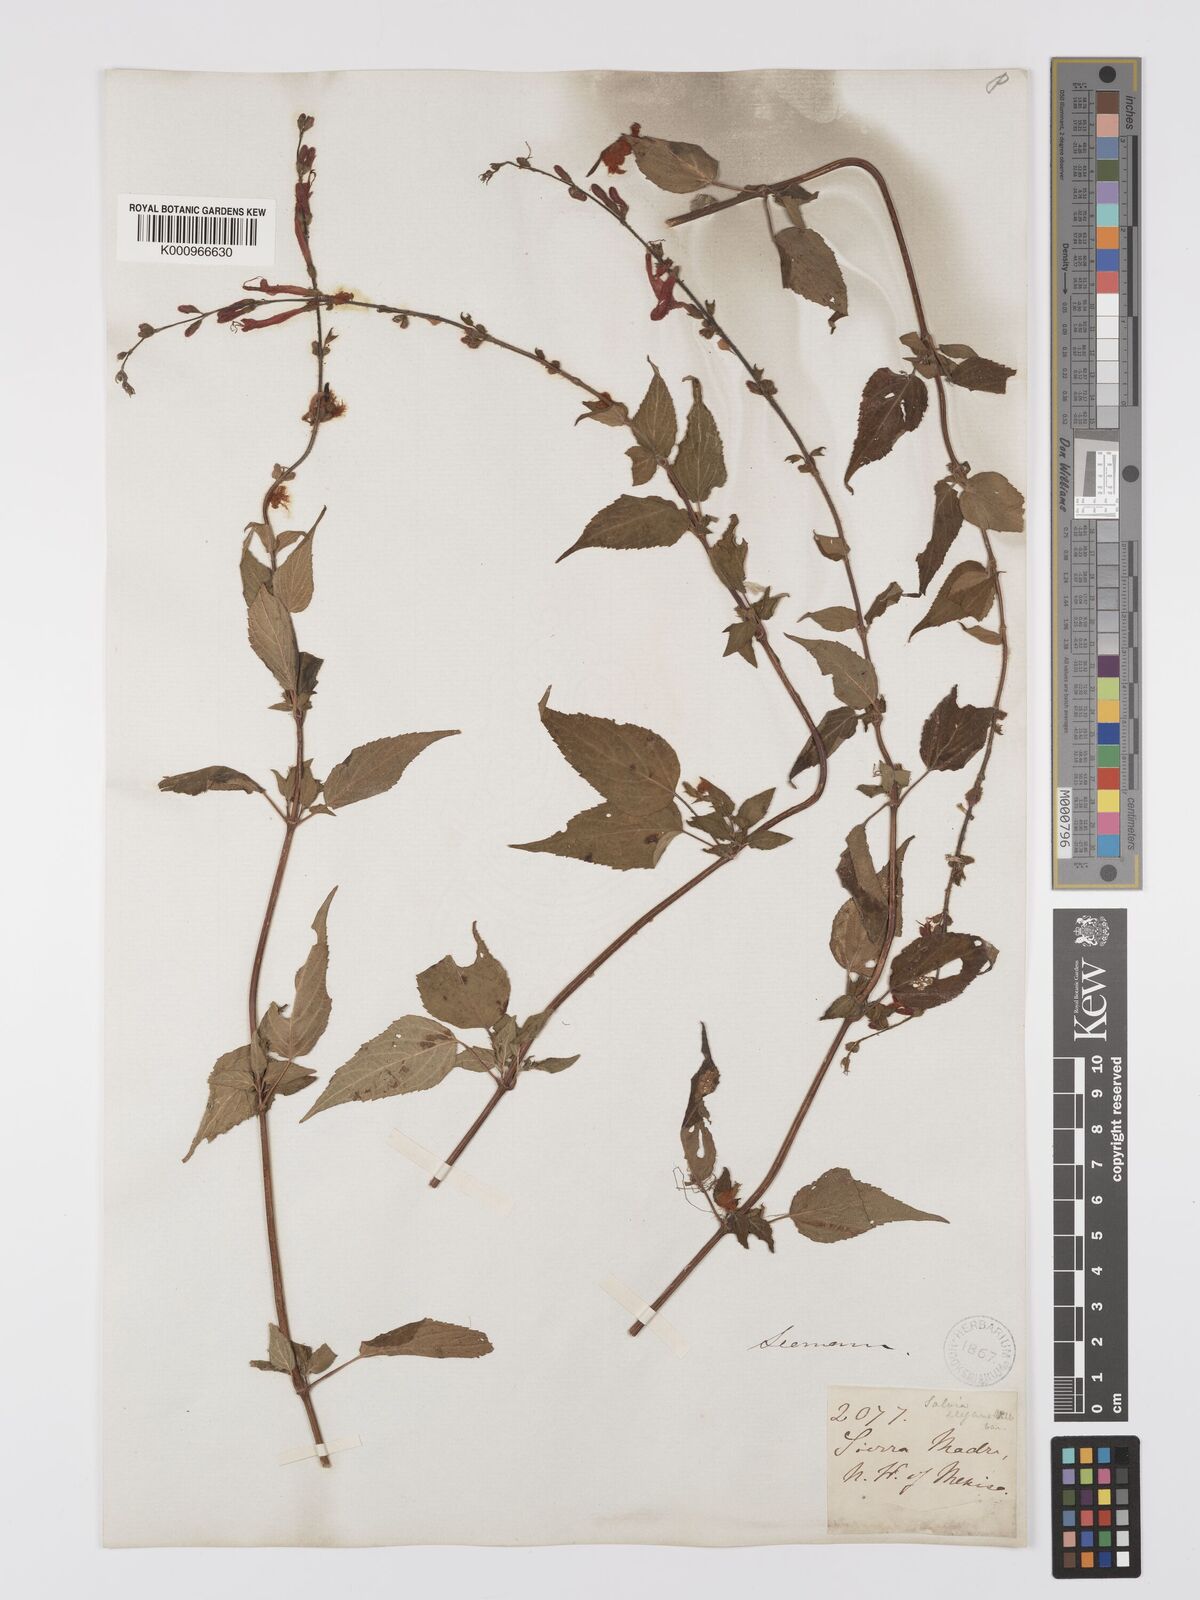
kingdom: Plantae
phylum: Tracheophyta
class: Magnoliopsida
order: Lamiales
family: Lamiaceae
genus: Salvia
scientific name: Salvia elegans
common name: Pineapple sage
